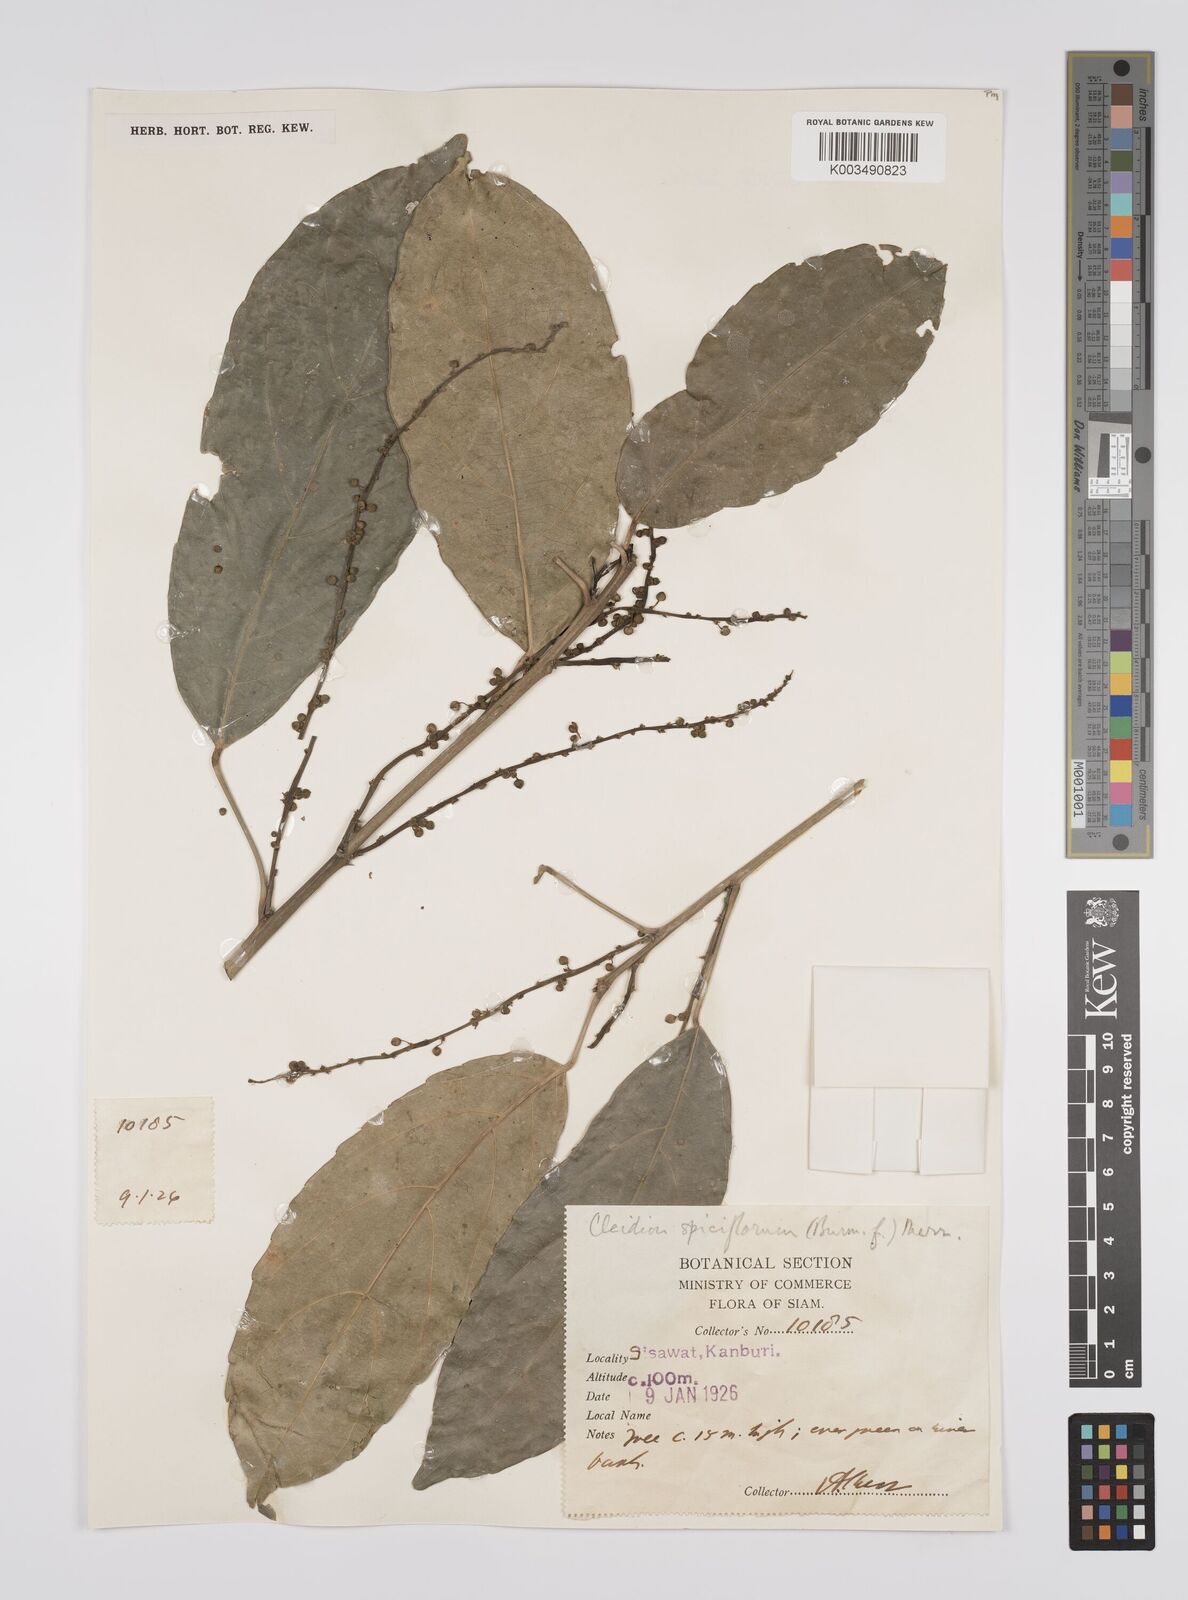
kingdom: Plantae
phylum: Tracheophyta
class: Magnoliopsida
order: Malpighiales
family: Euphorbiaceae
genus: Acalypha
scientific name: Acalypha spiciflora
